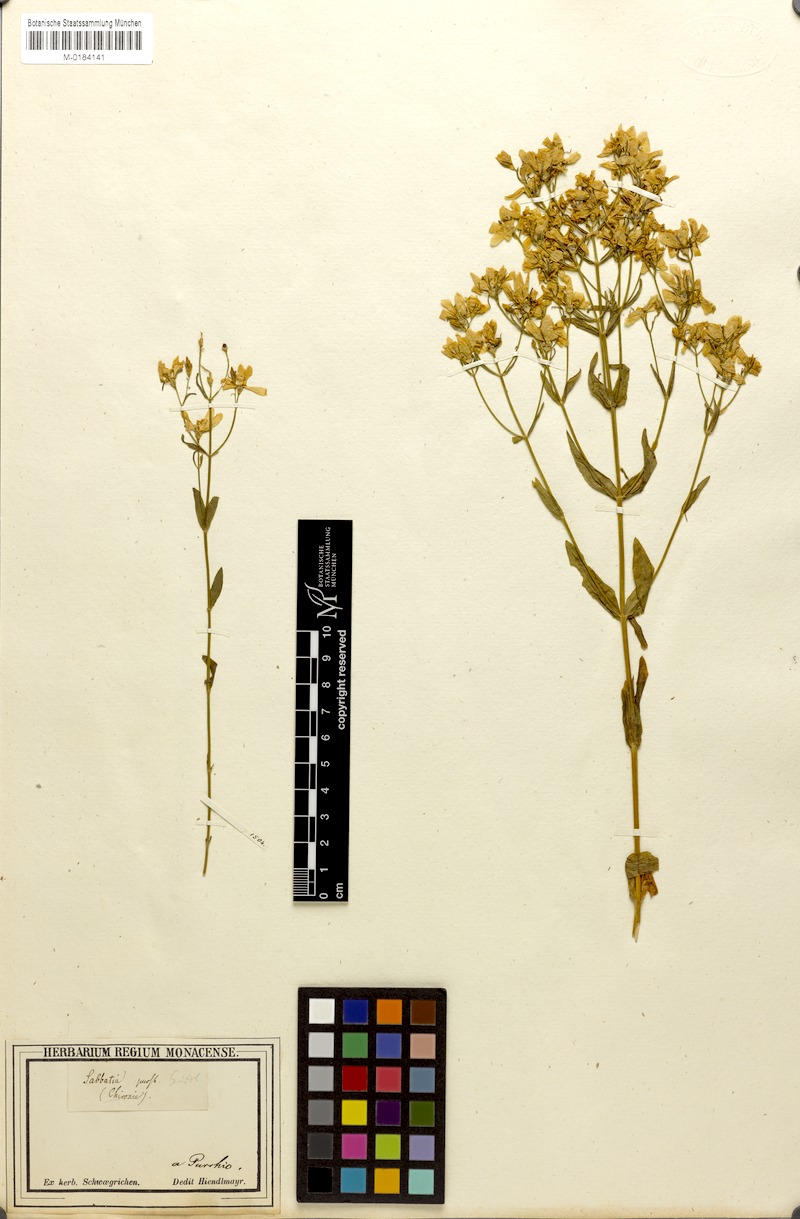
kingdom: Plantae
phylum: Tracheophyta
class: Magnoliopsida
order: Gentianales
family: Gentianaceae
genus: Sabatia
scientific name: Sabatia difformis
